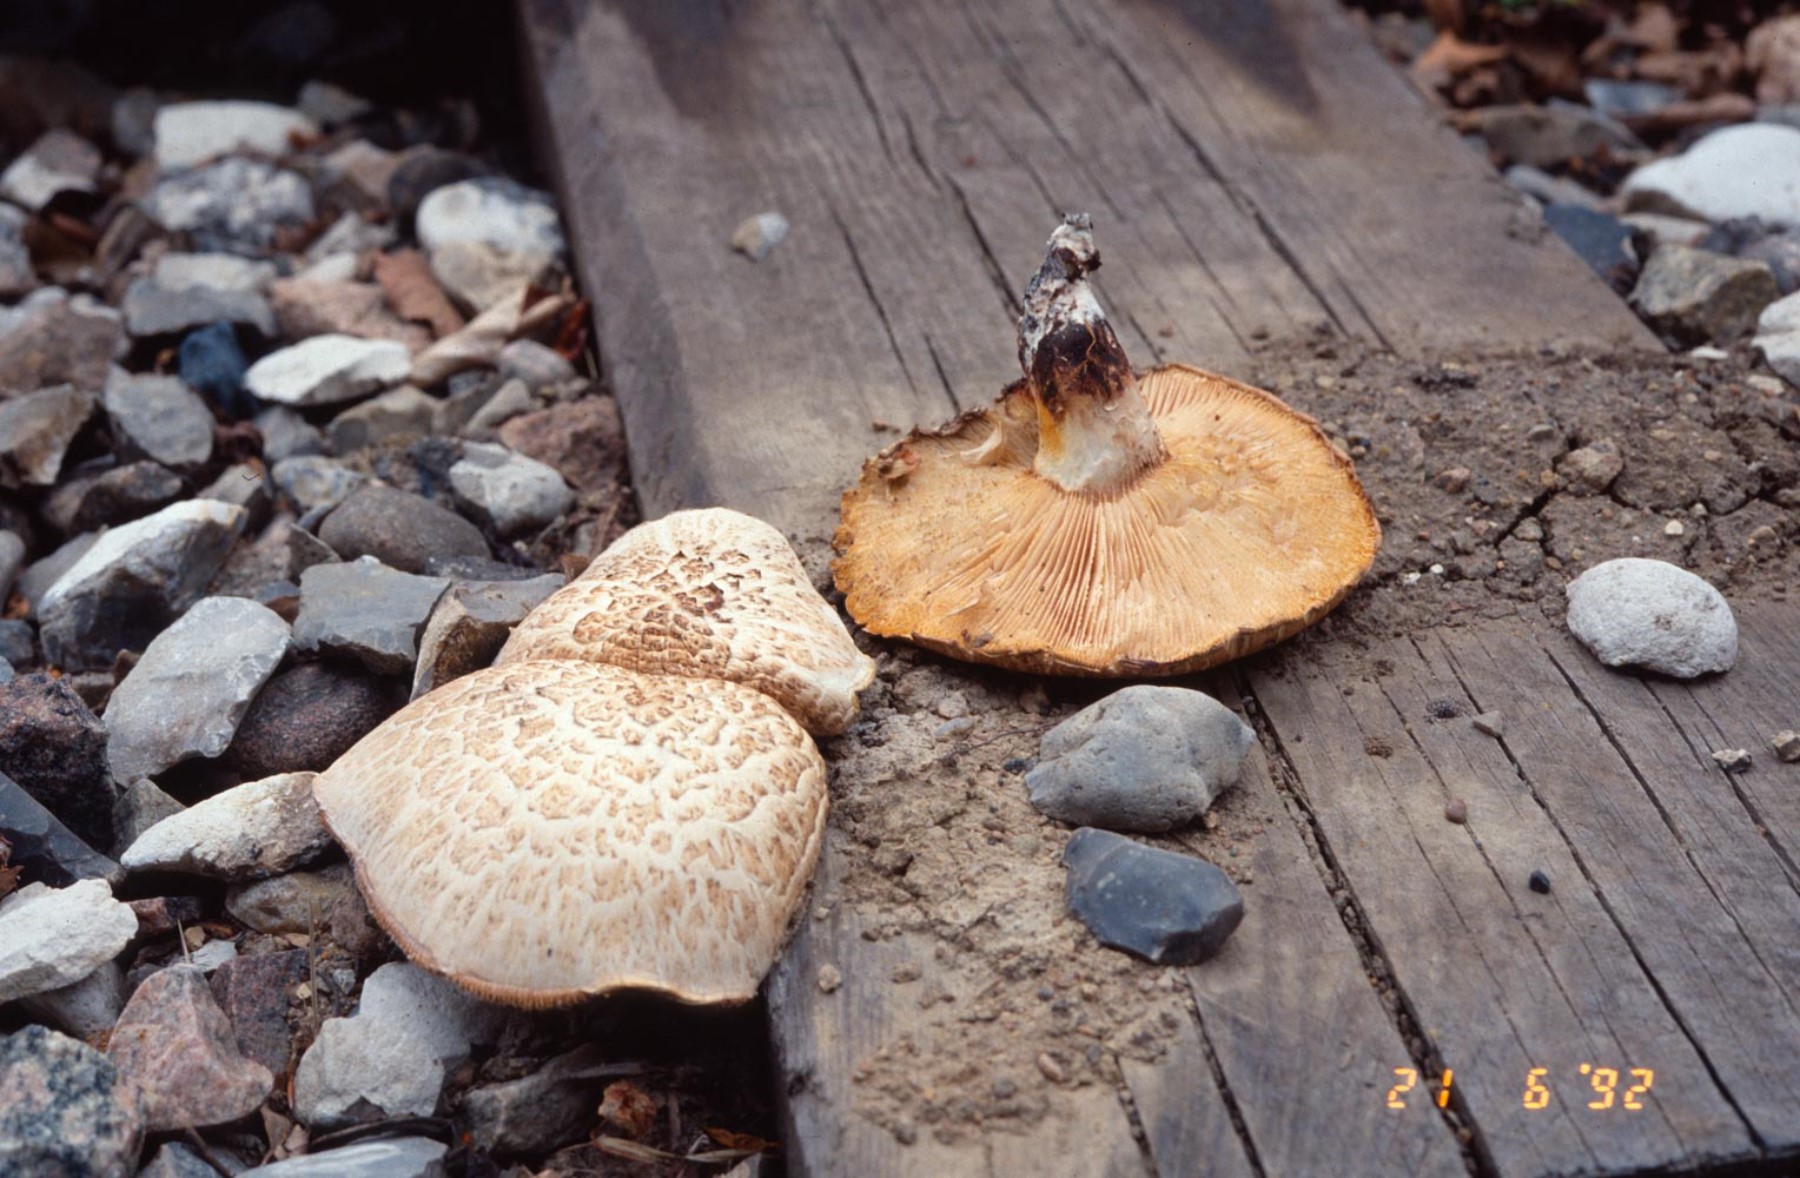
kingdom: Fungi
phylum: Basidiomycota
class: Agaricomycetes
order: Gloeophyllales
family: Gloeophyllaceae
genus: Neolentinus
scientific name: Neolentinus lepideus
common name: skællet sejhat
